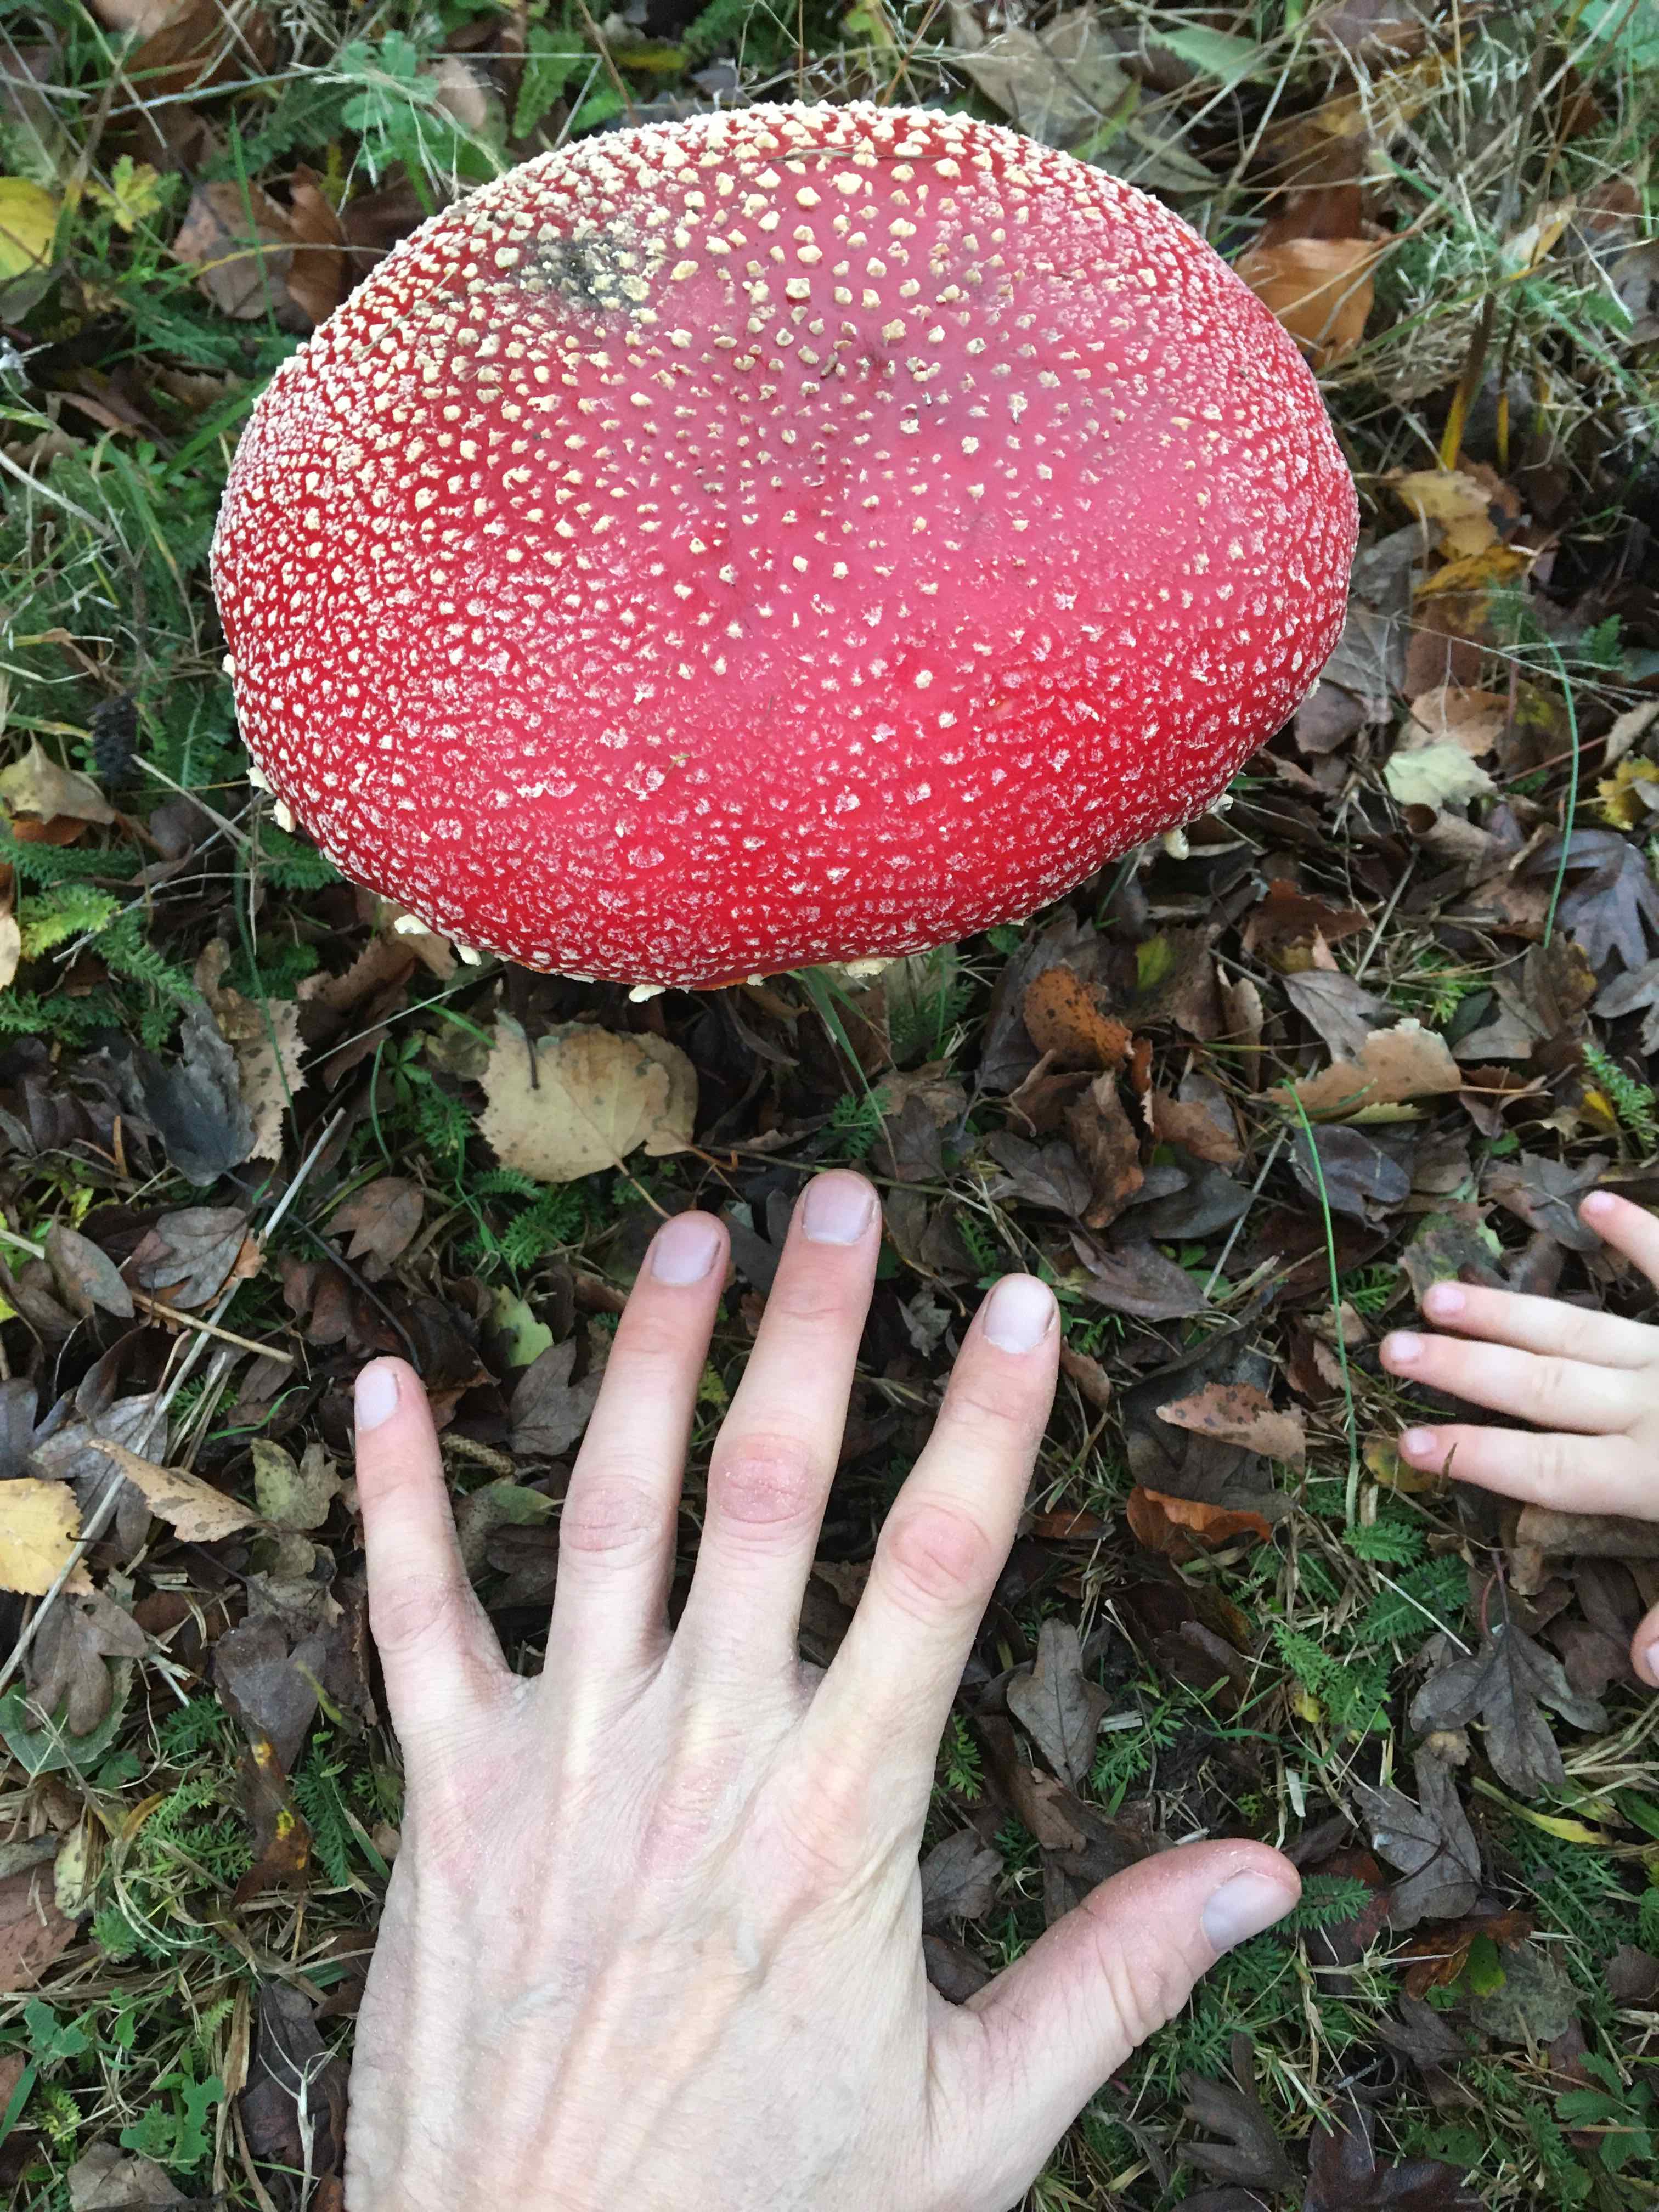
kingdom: Fungi
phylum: Basidiomycota
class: Agaricomycetes
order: Agaricales
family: Amanitaceae
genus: Amanita
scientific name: Amanita muscaria
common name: rød fluesvamp
